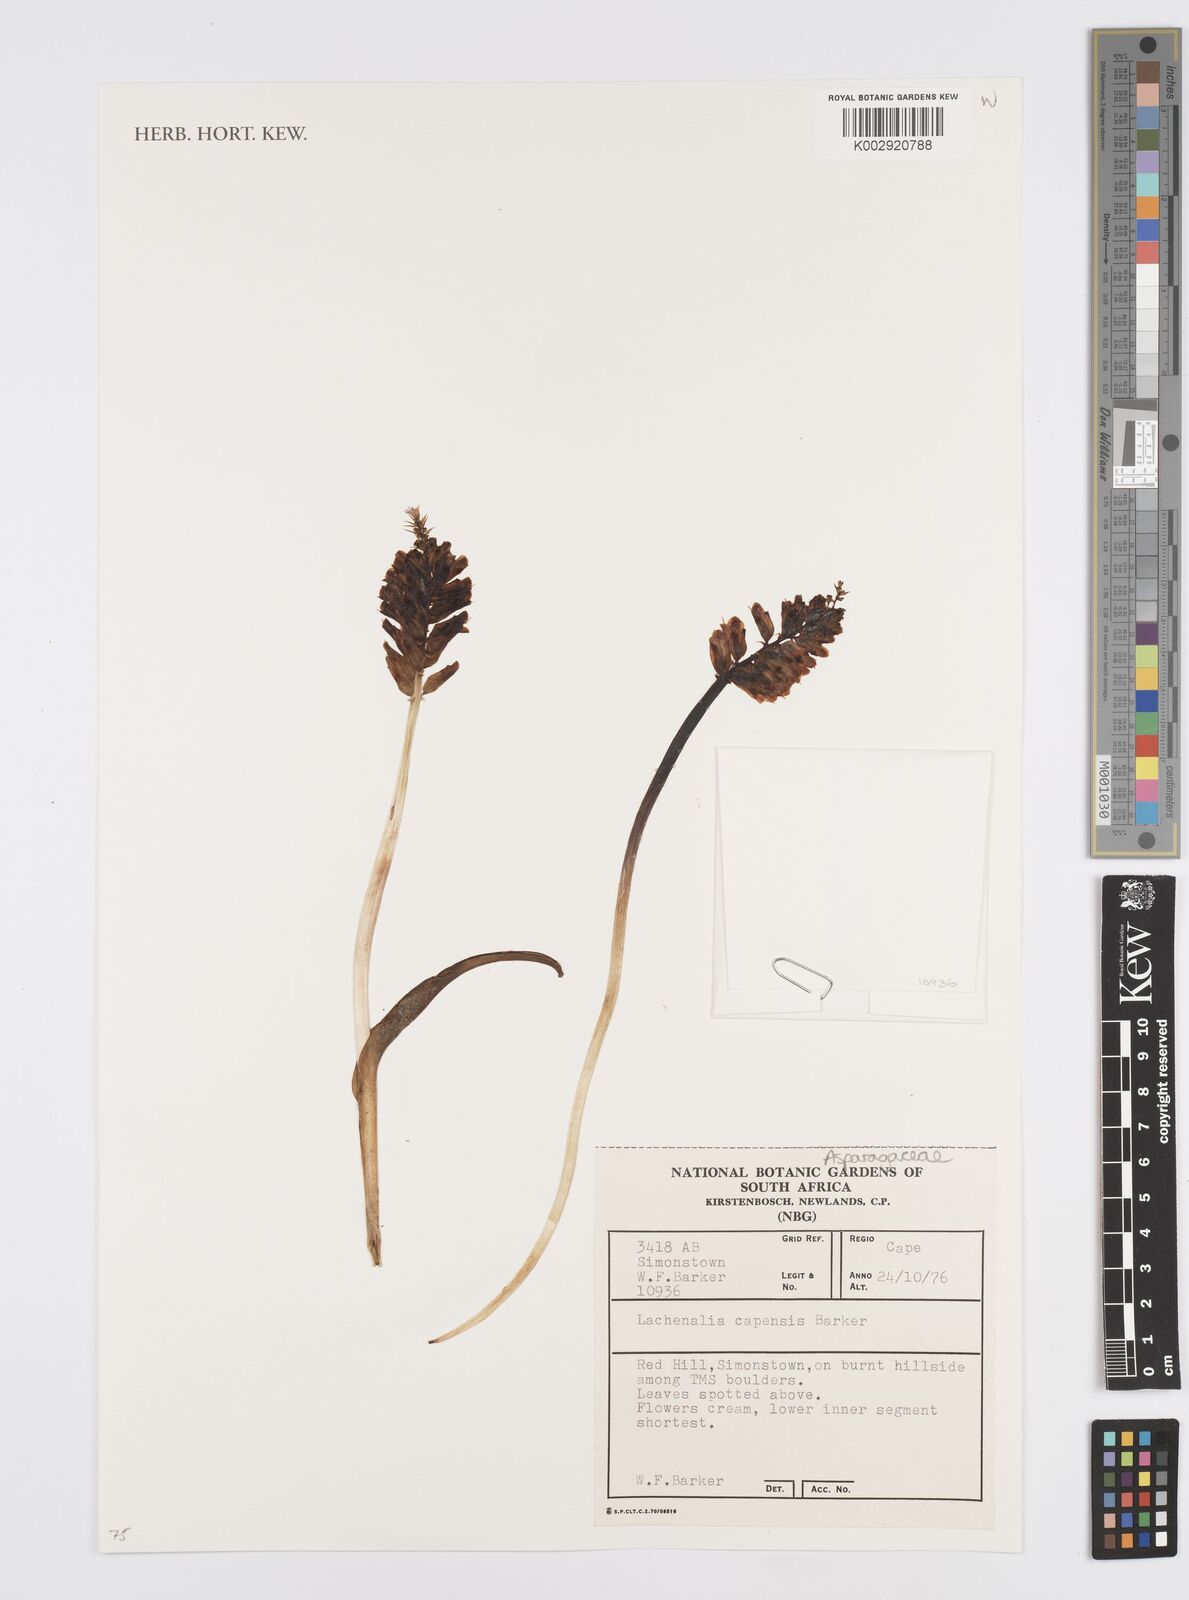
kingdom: Plantae
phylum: Tracheophyta
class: Liliopsida
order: Asparagales
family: Asparagaceae
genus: Lachenalia
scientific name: Lachenalia capensis
